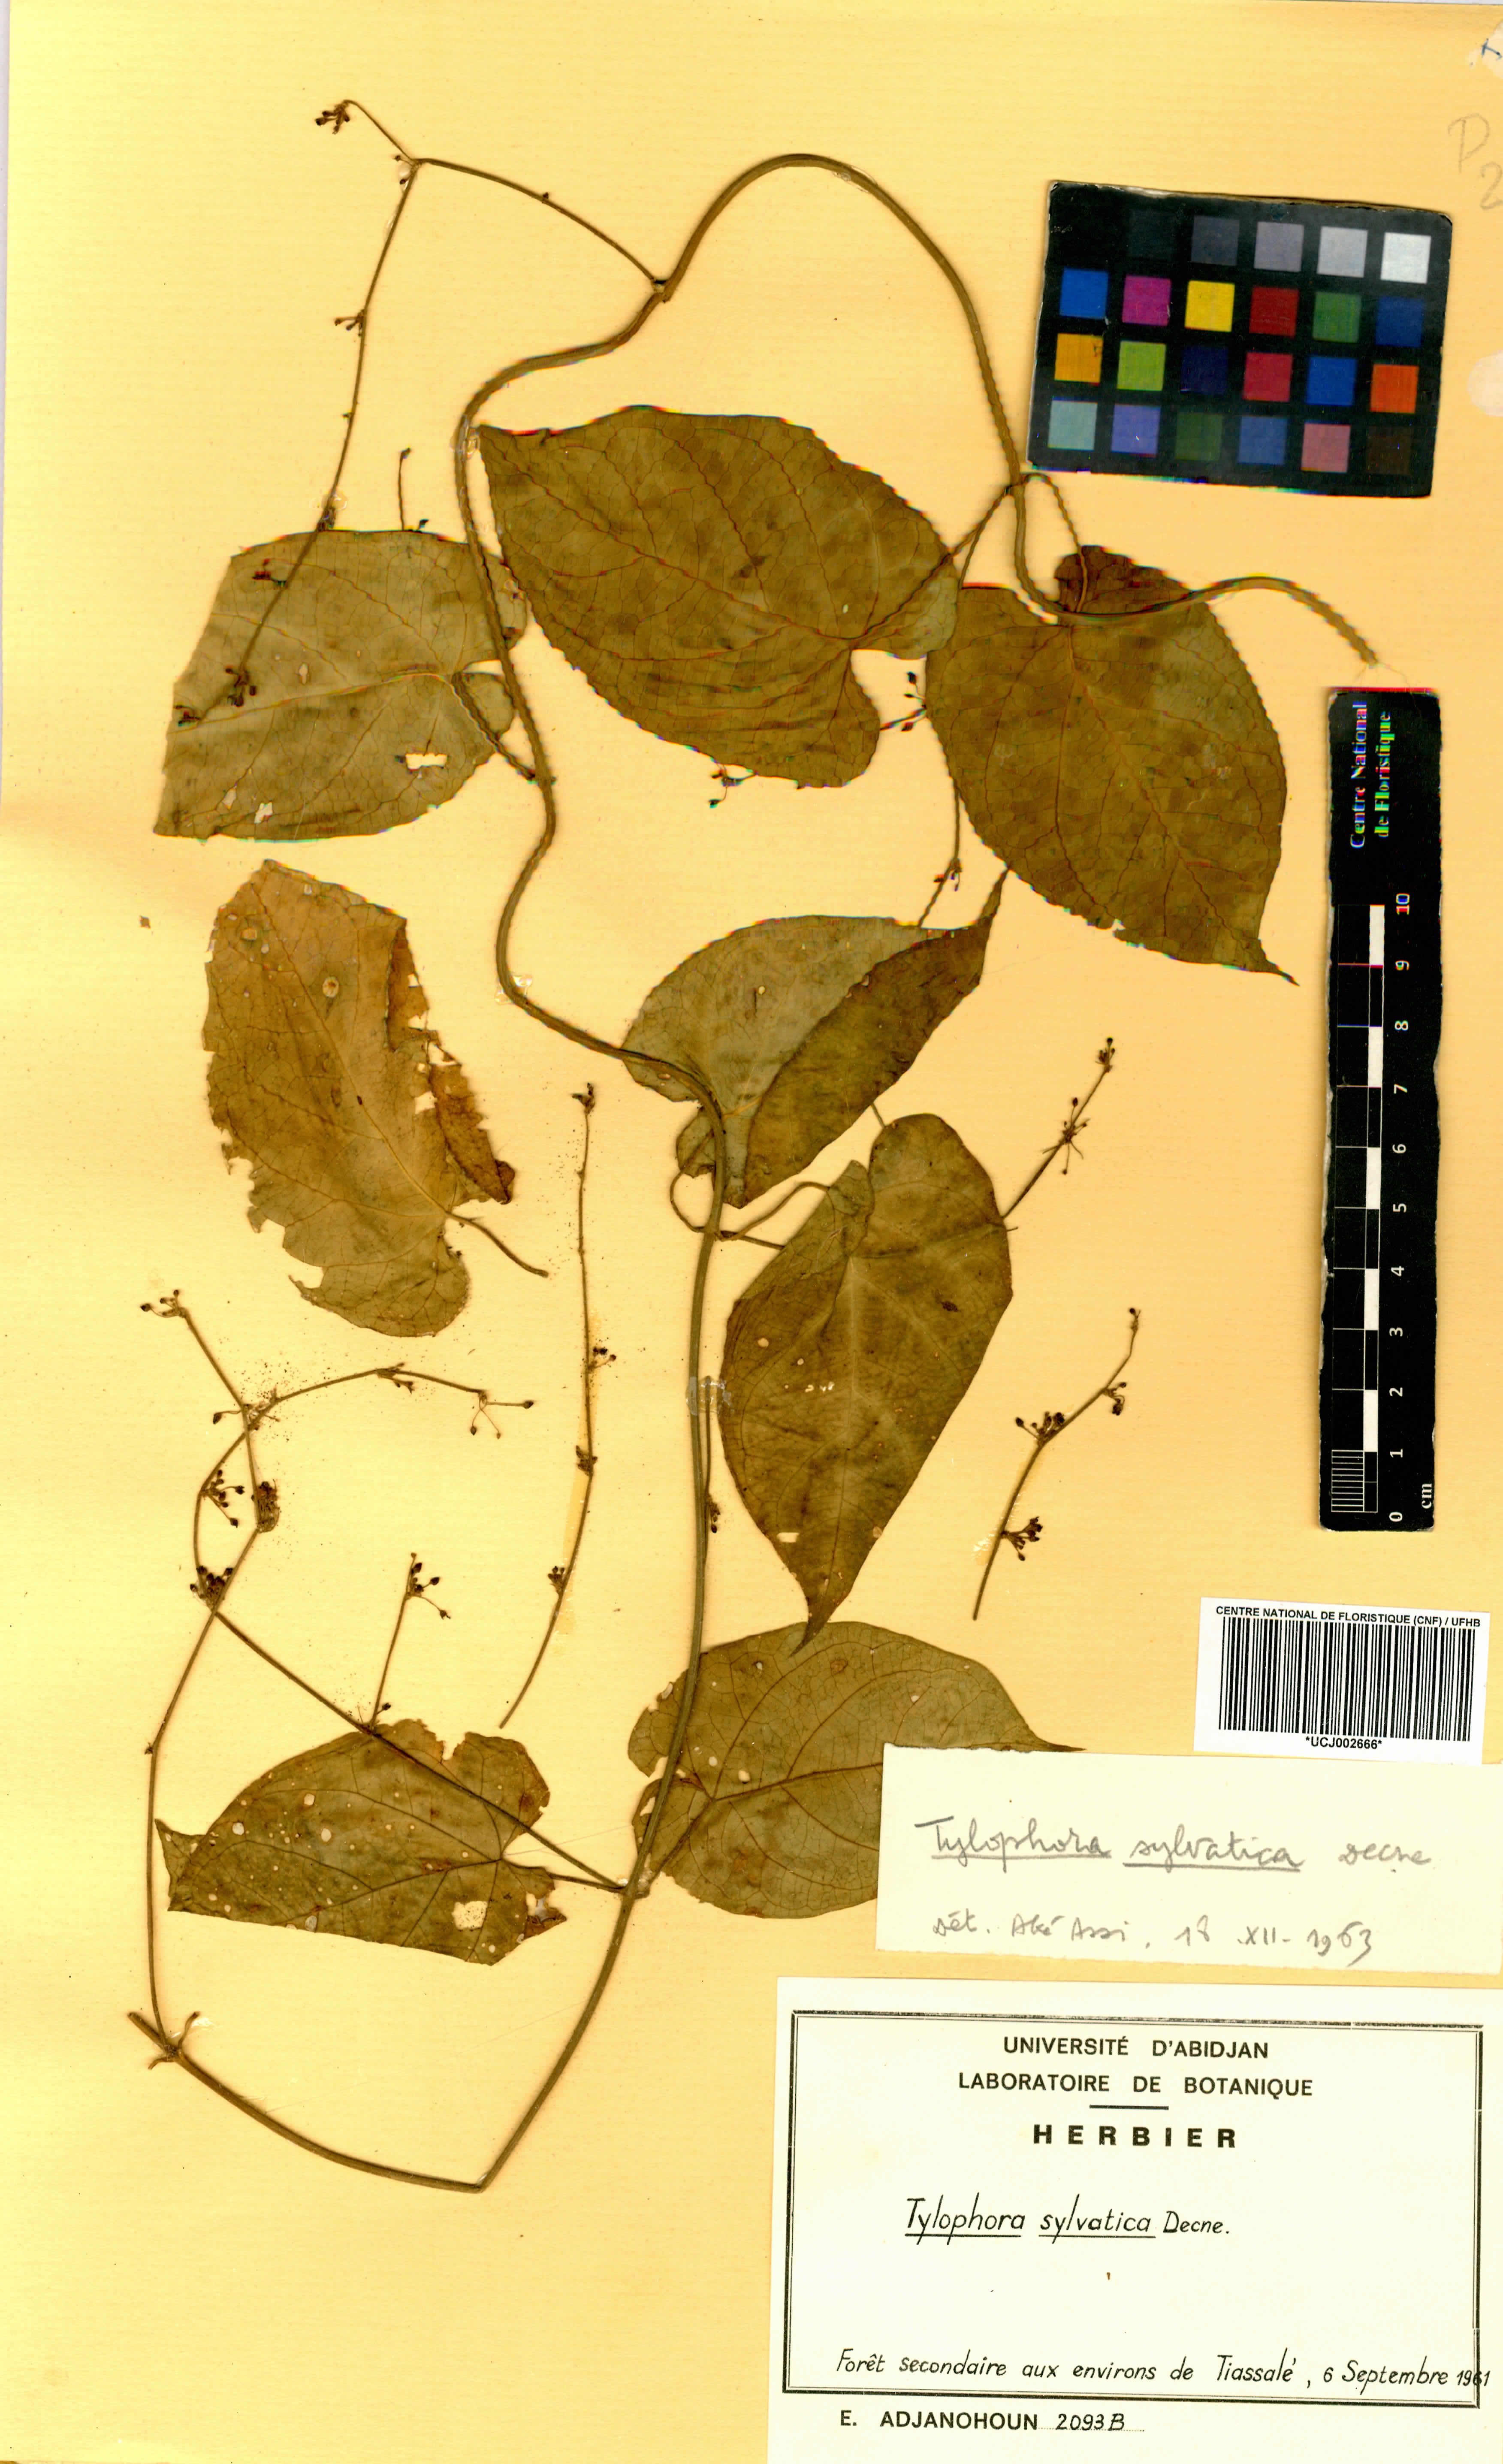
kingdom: Plantae
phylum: Tracheophyta
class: Magnoliopsida
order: Gentianales
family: Apocynaceae
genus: Vincetoxicum
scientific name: Vincetoxicum sylvaticum
